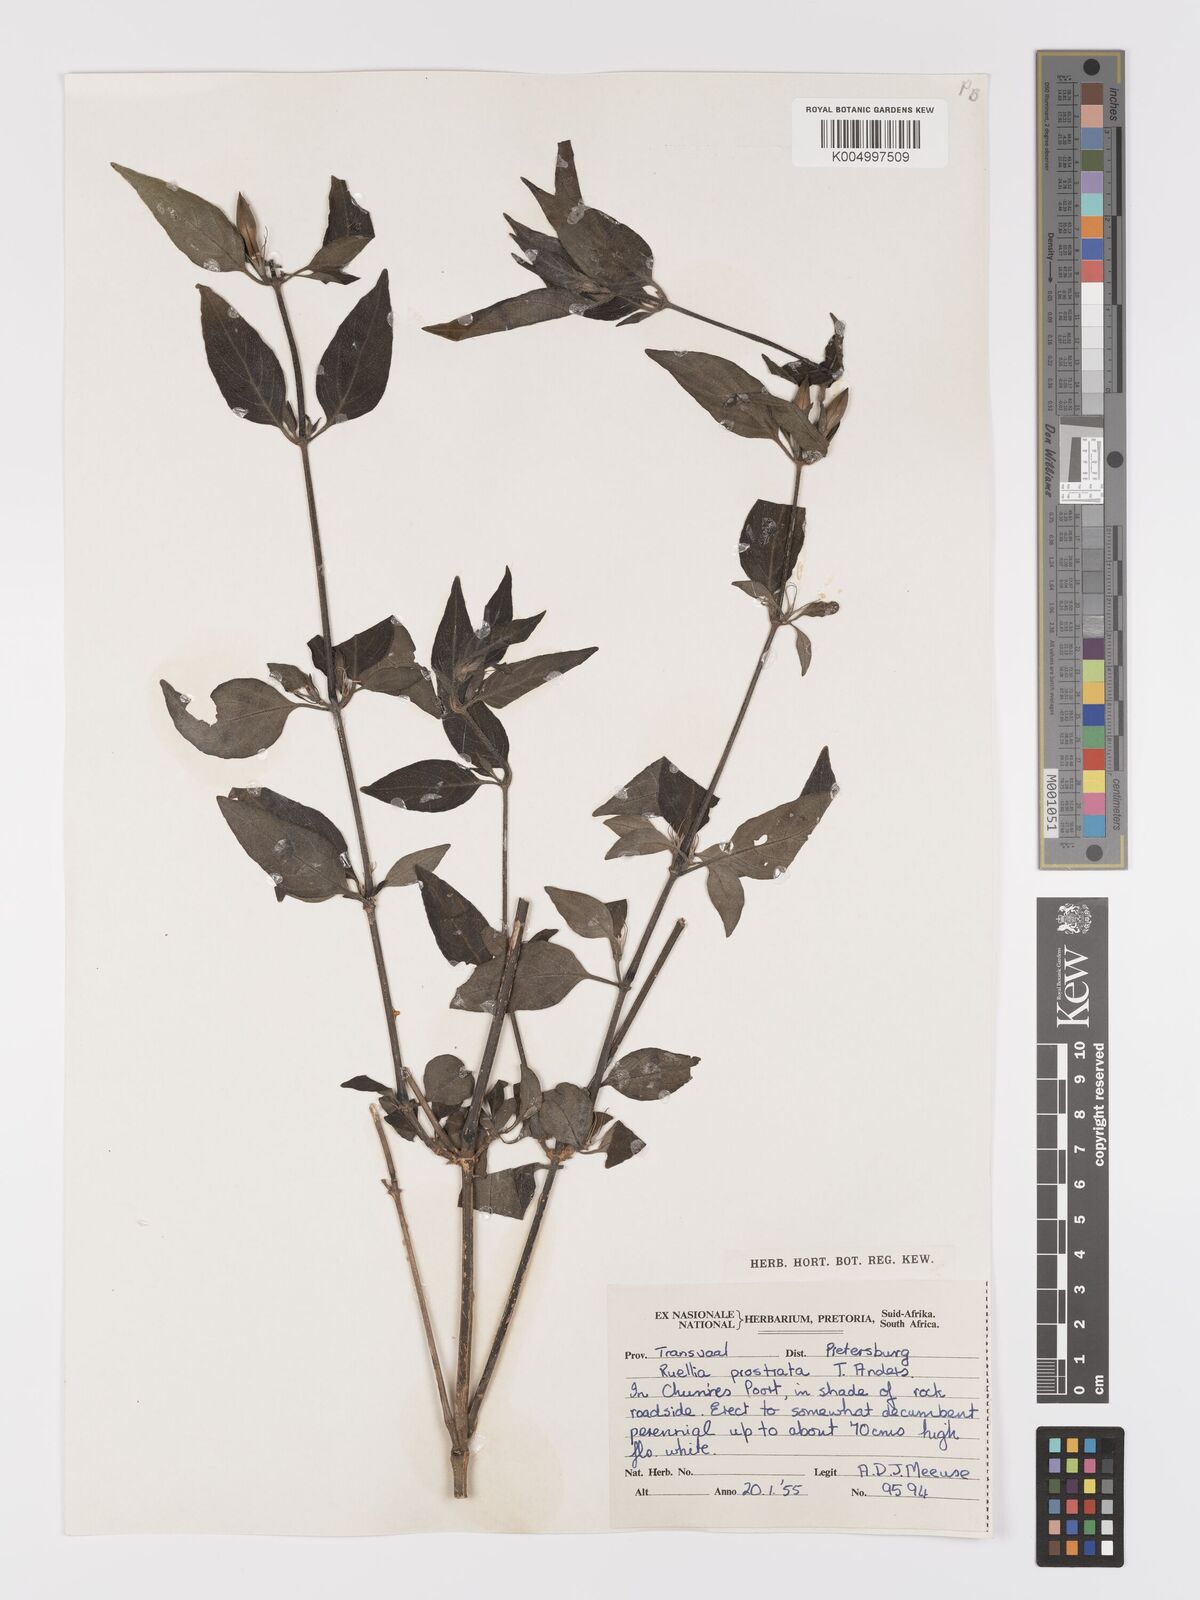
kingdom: Plantae
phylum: Tracheophyta
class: Magnoliopsida
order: Lamiales
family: Acanthaceae
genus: Ruellia
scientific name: Ruellia
